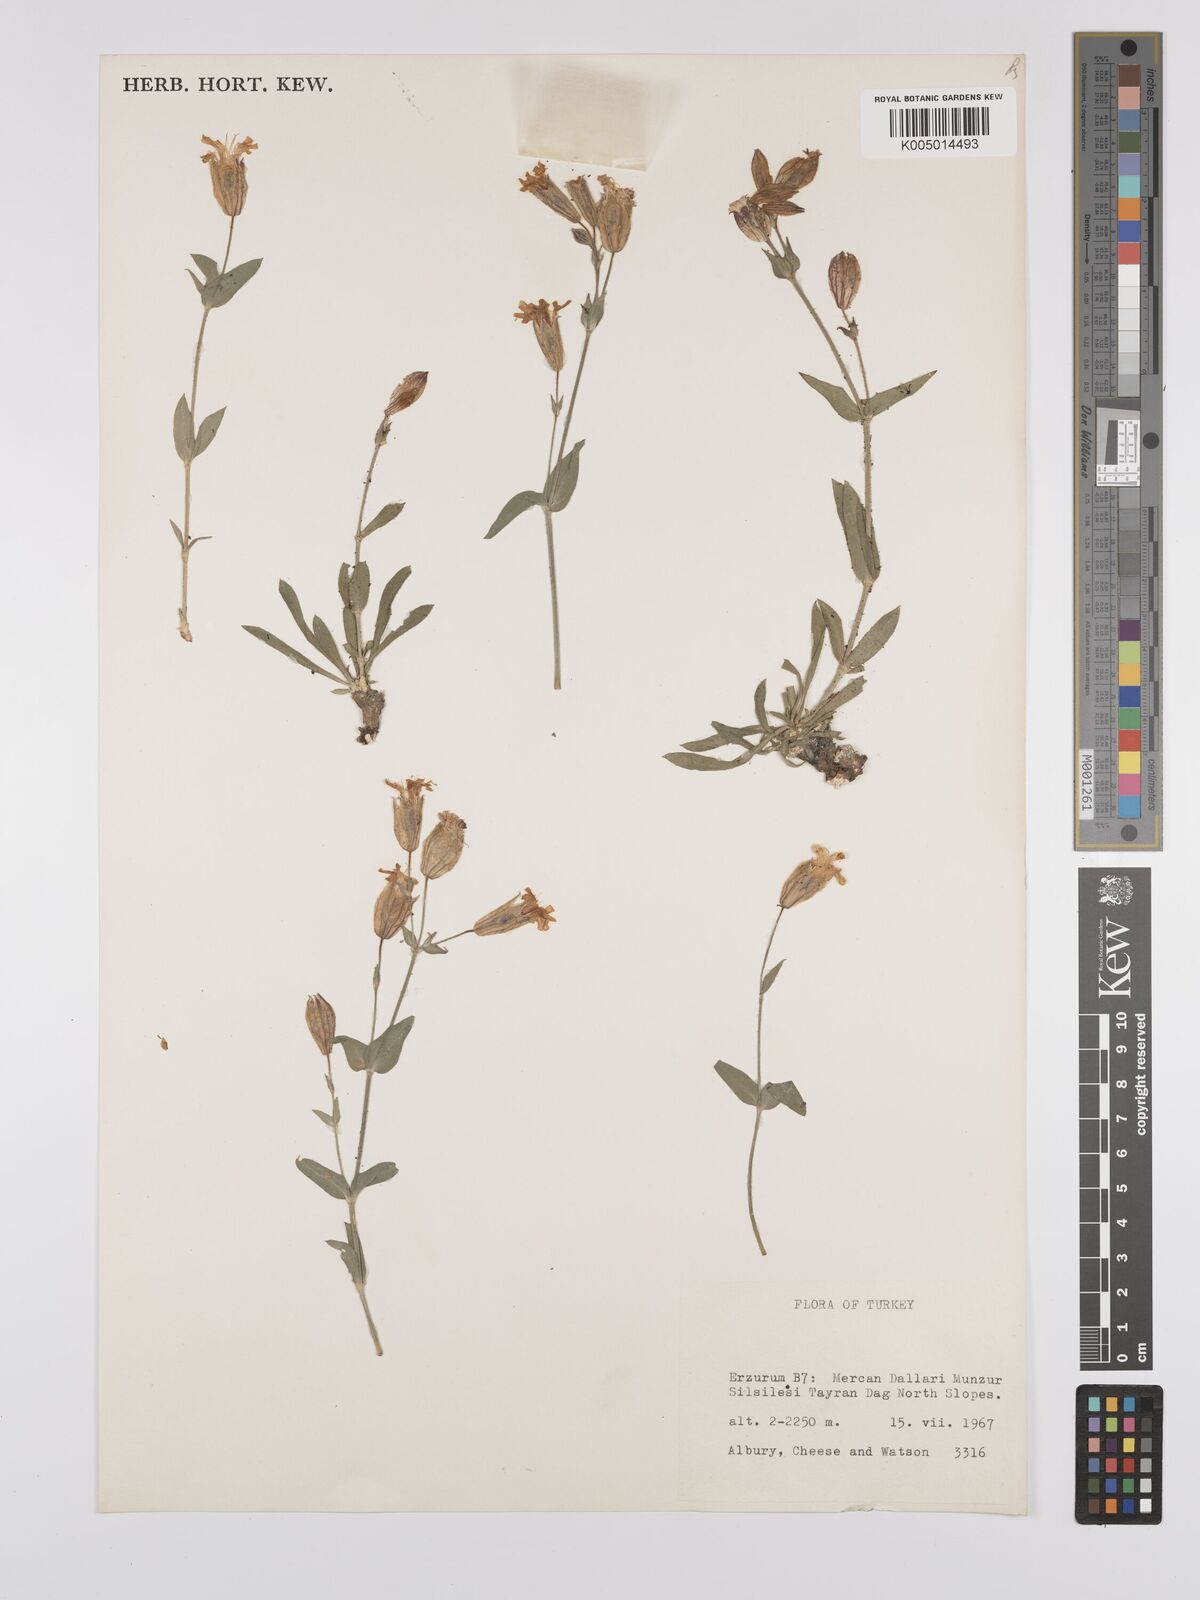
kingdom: Plantae
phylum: Tracheophyta
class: Magnoliopsida
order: Caryophyllales
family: Caryophyllaceae
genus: Silene
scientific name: Silene
